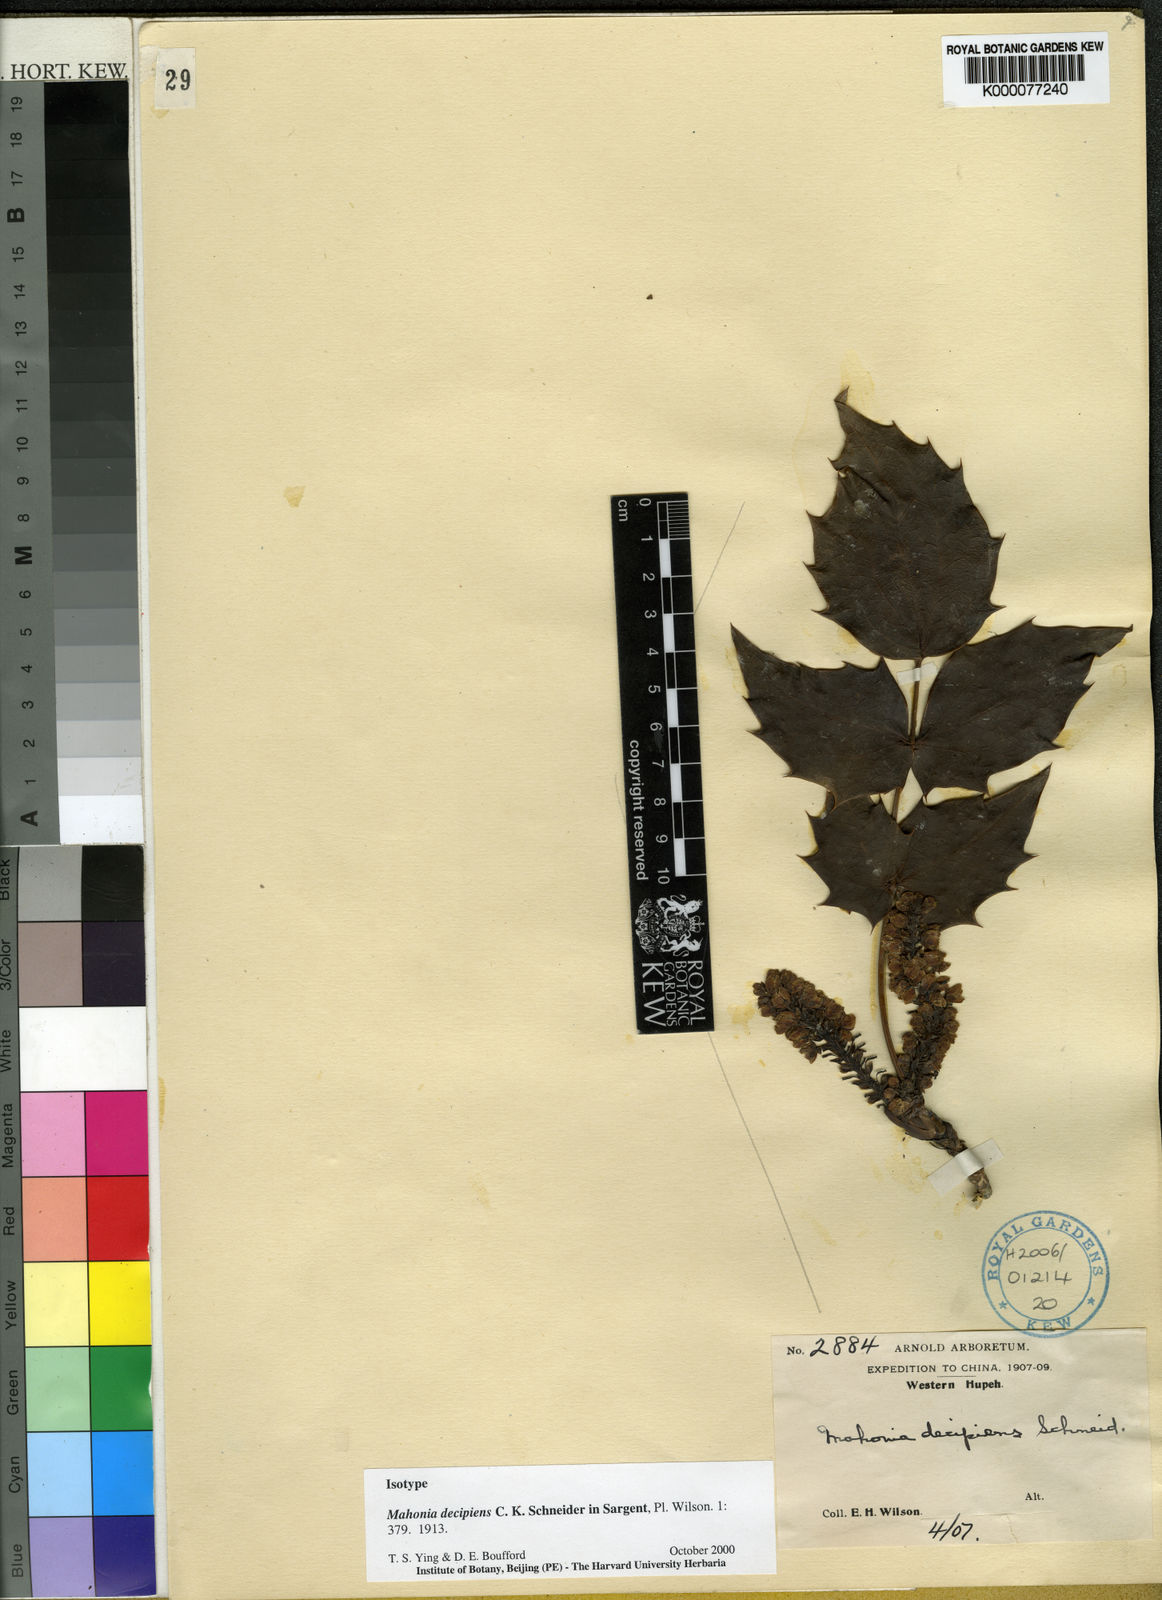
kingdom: Plantae
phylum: Tracheophyta
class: Magnoliopsida
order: Ranunculales
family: Berberidaceae
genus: Berberis
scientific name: Berberis decipiens
